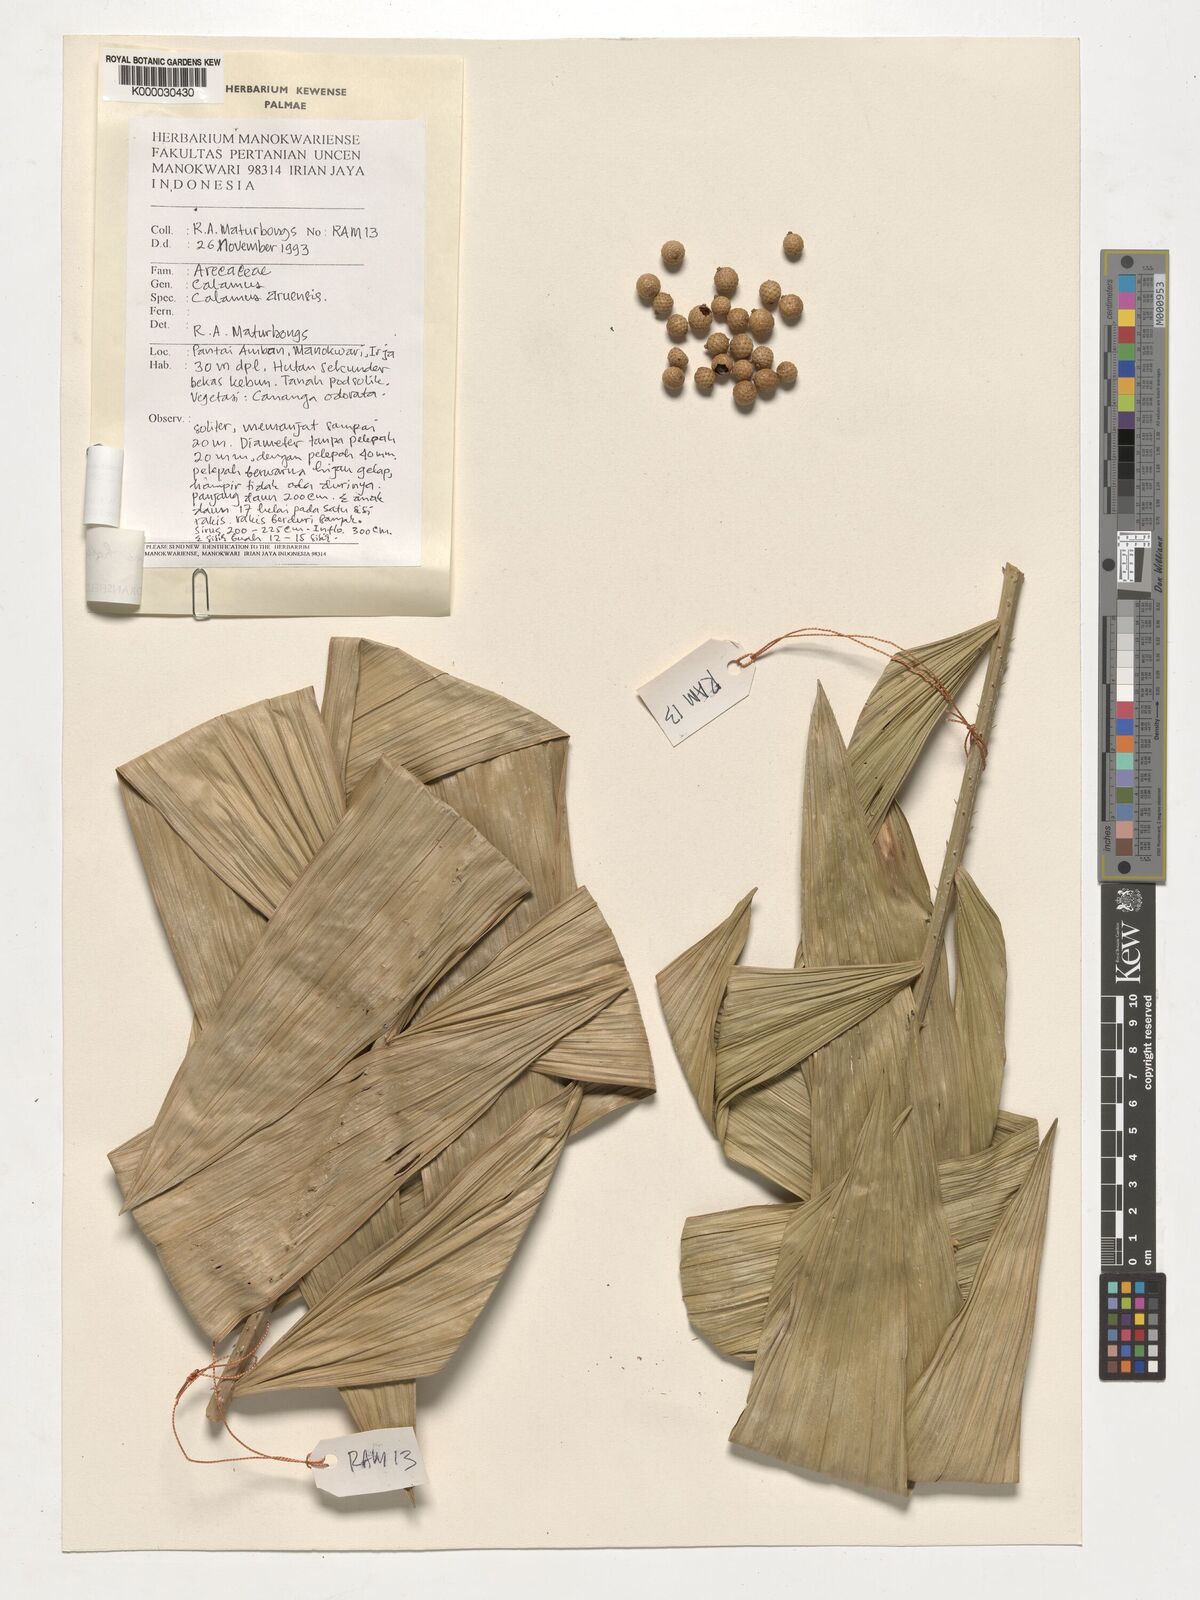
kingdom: Plantae
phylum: Tracheophyta
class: Liliopsida
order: Arecales
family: Arecaceae
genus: Calamus
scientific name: Calamus aruensis
